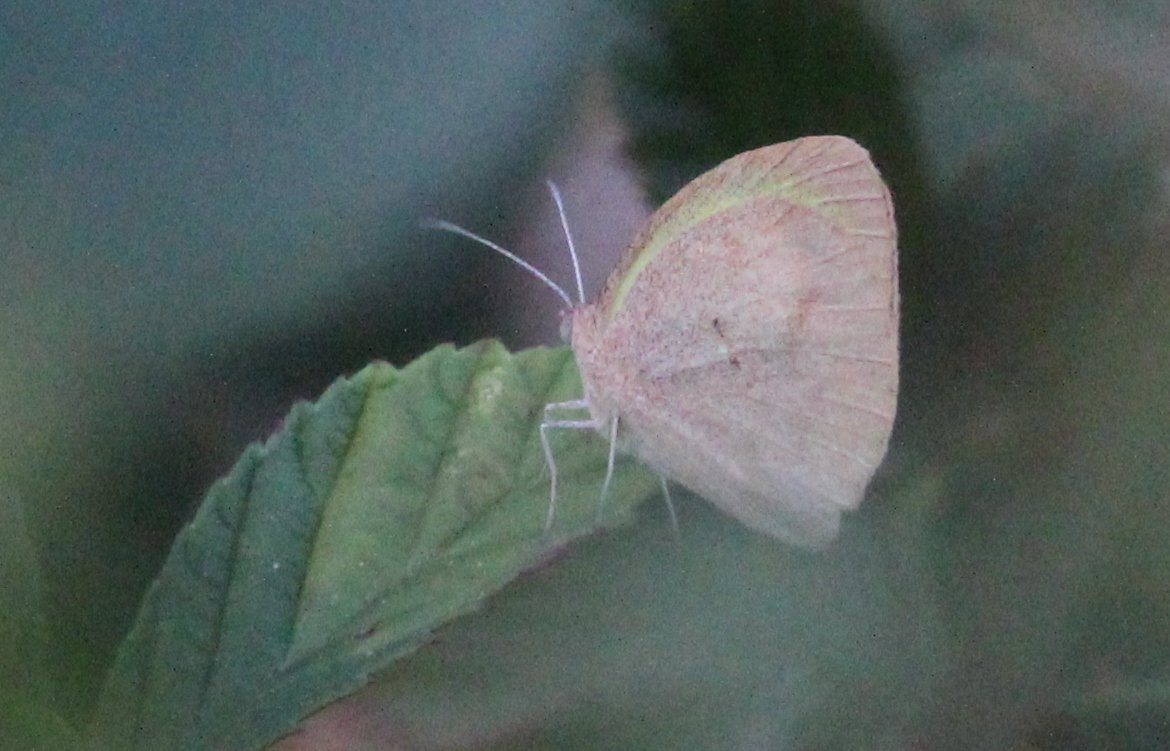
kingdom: Animalia
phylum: Arthropoda
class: Insecta
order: Lepidoptera
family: Pieridae
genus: Eurema
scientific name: Eurema daira
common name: Barred Yellow
